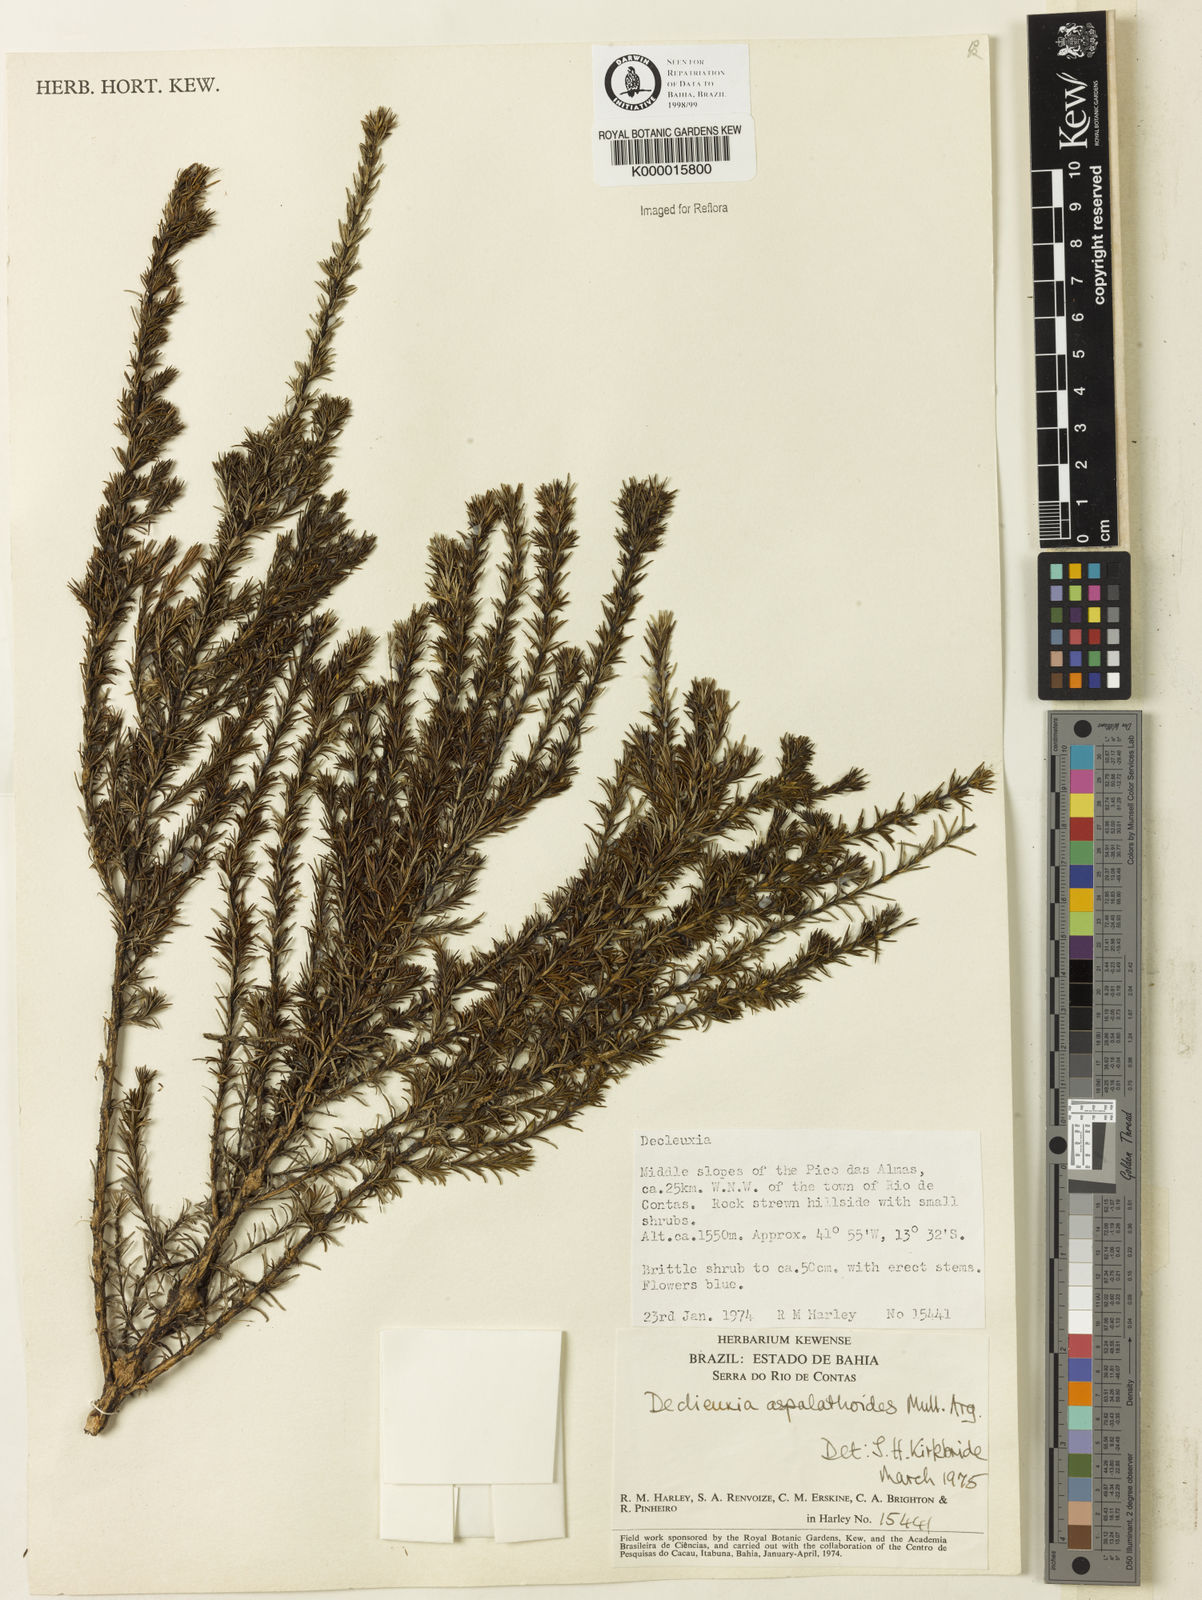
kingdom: Plantae
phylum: Tracheophyta
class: Magnoliopsida
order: Gentianales
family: Rubiaceae
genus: Declieuxia
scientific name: Declieuxia aspalathoides
